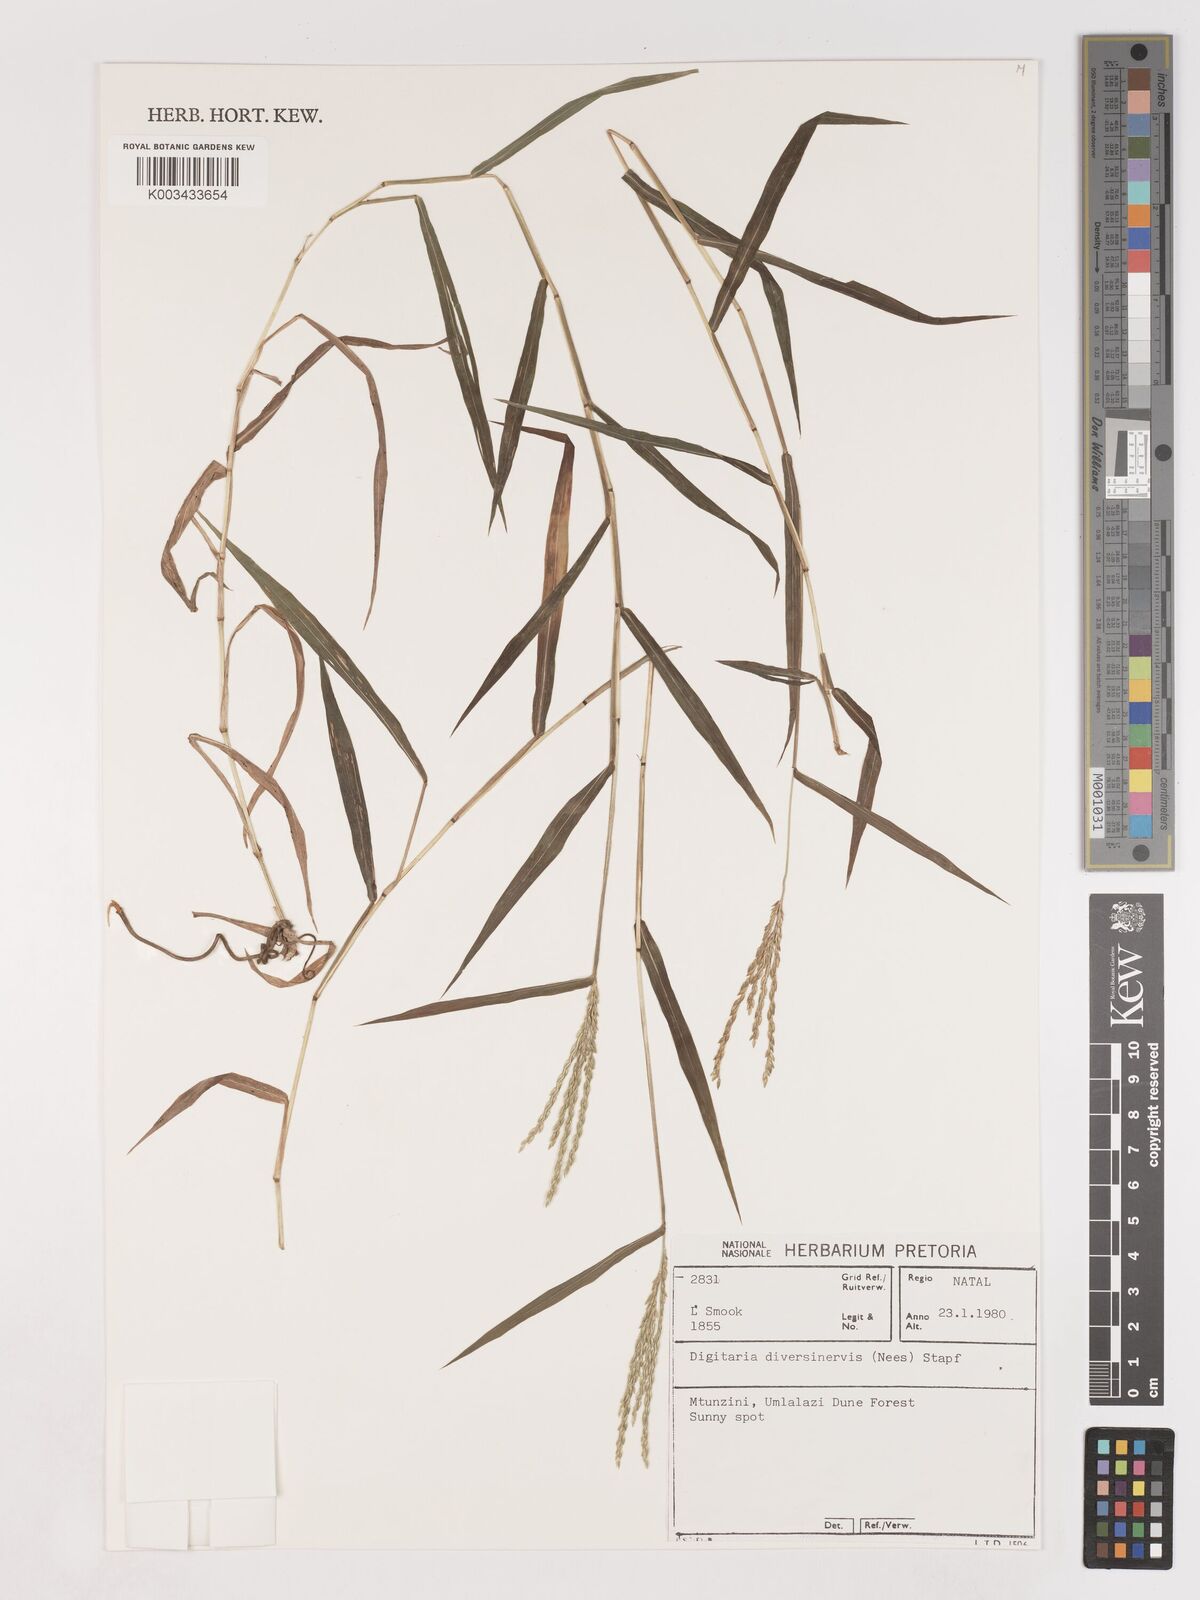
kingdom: Plantae
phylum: Tracheophyta
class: Liliopsida
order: Poales
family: Poaceae
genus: Digitaria
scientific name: Digitaria diversinervis
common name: Richmond finger grass
